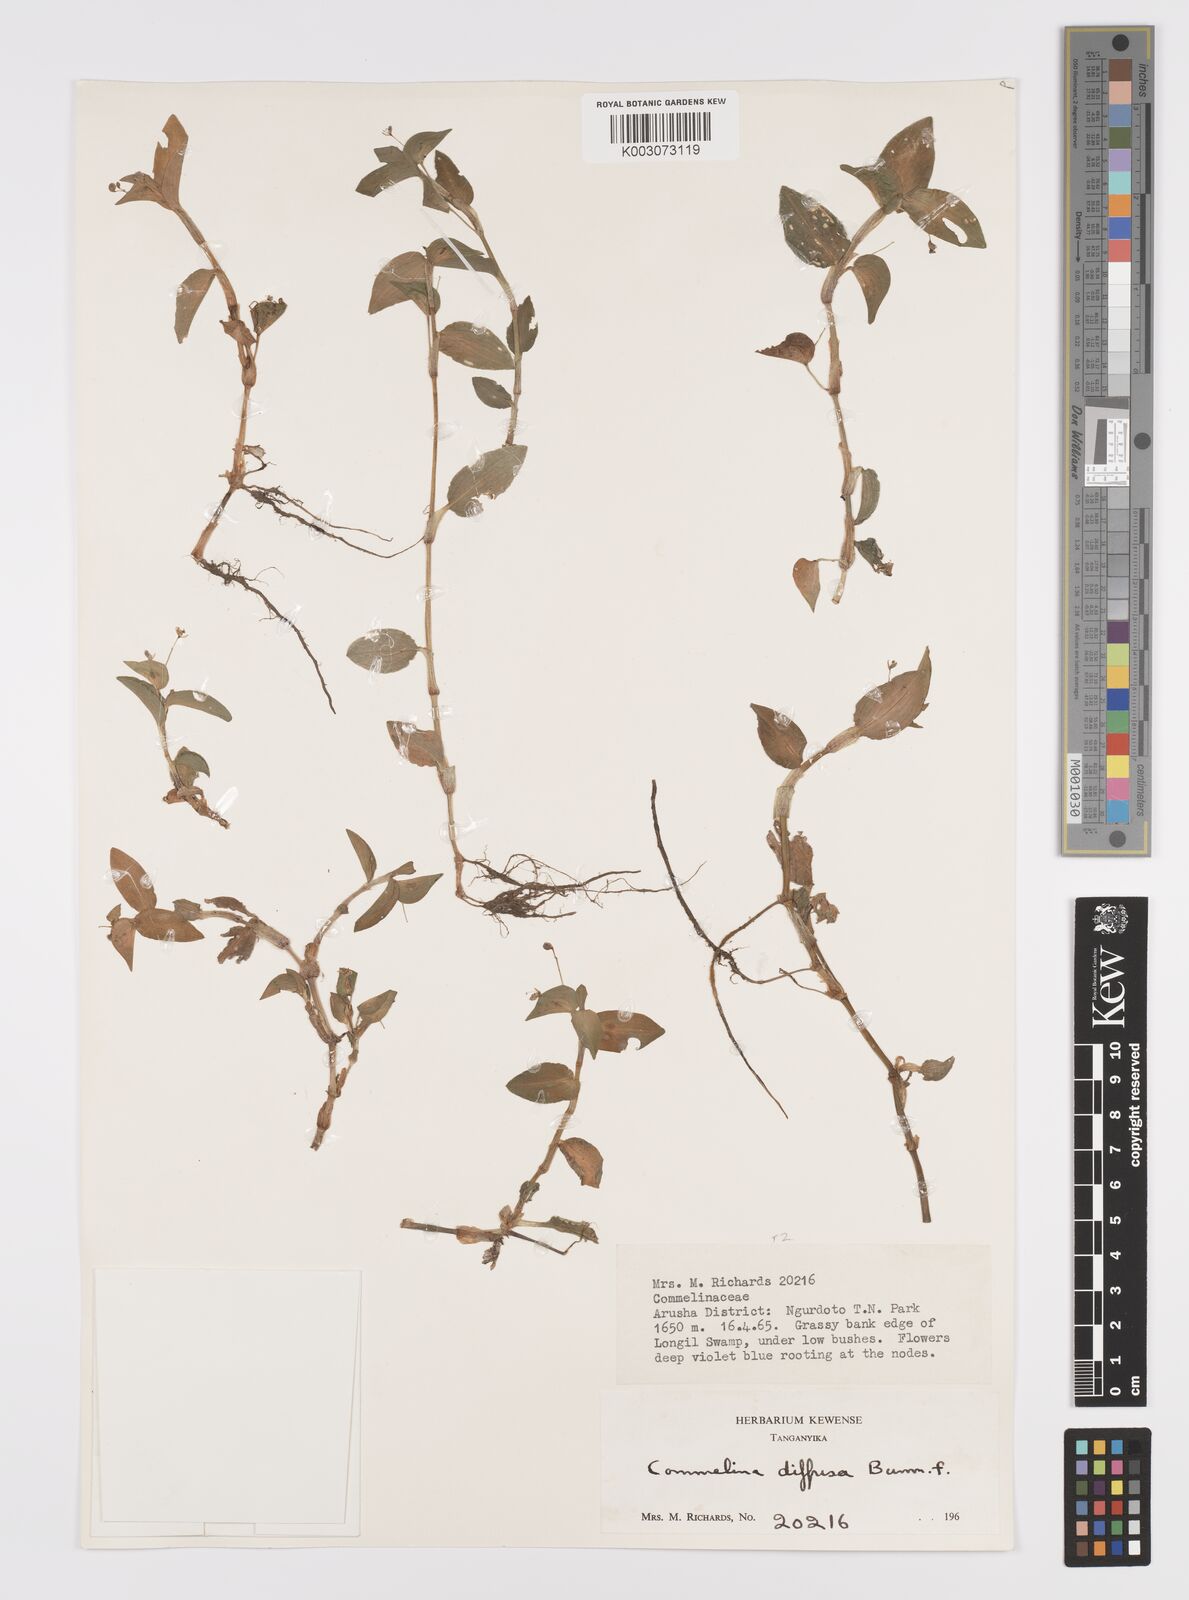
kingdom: Plantae
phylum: Tracheophyta
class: Liliopsida
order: Commelinales
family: Commelinaceae
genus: Commelina
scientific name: Commelina diffusa
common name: Climbing dayflower
